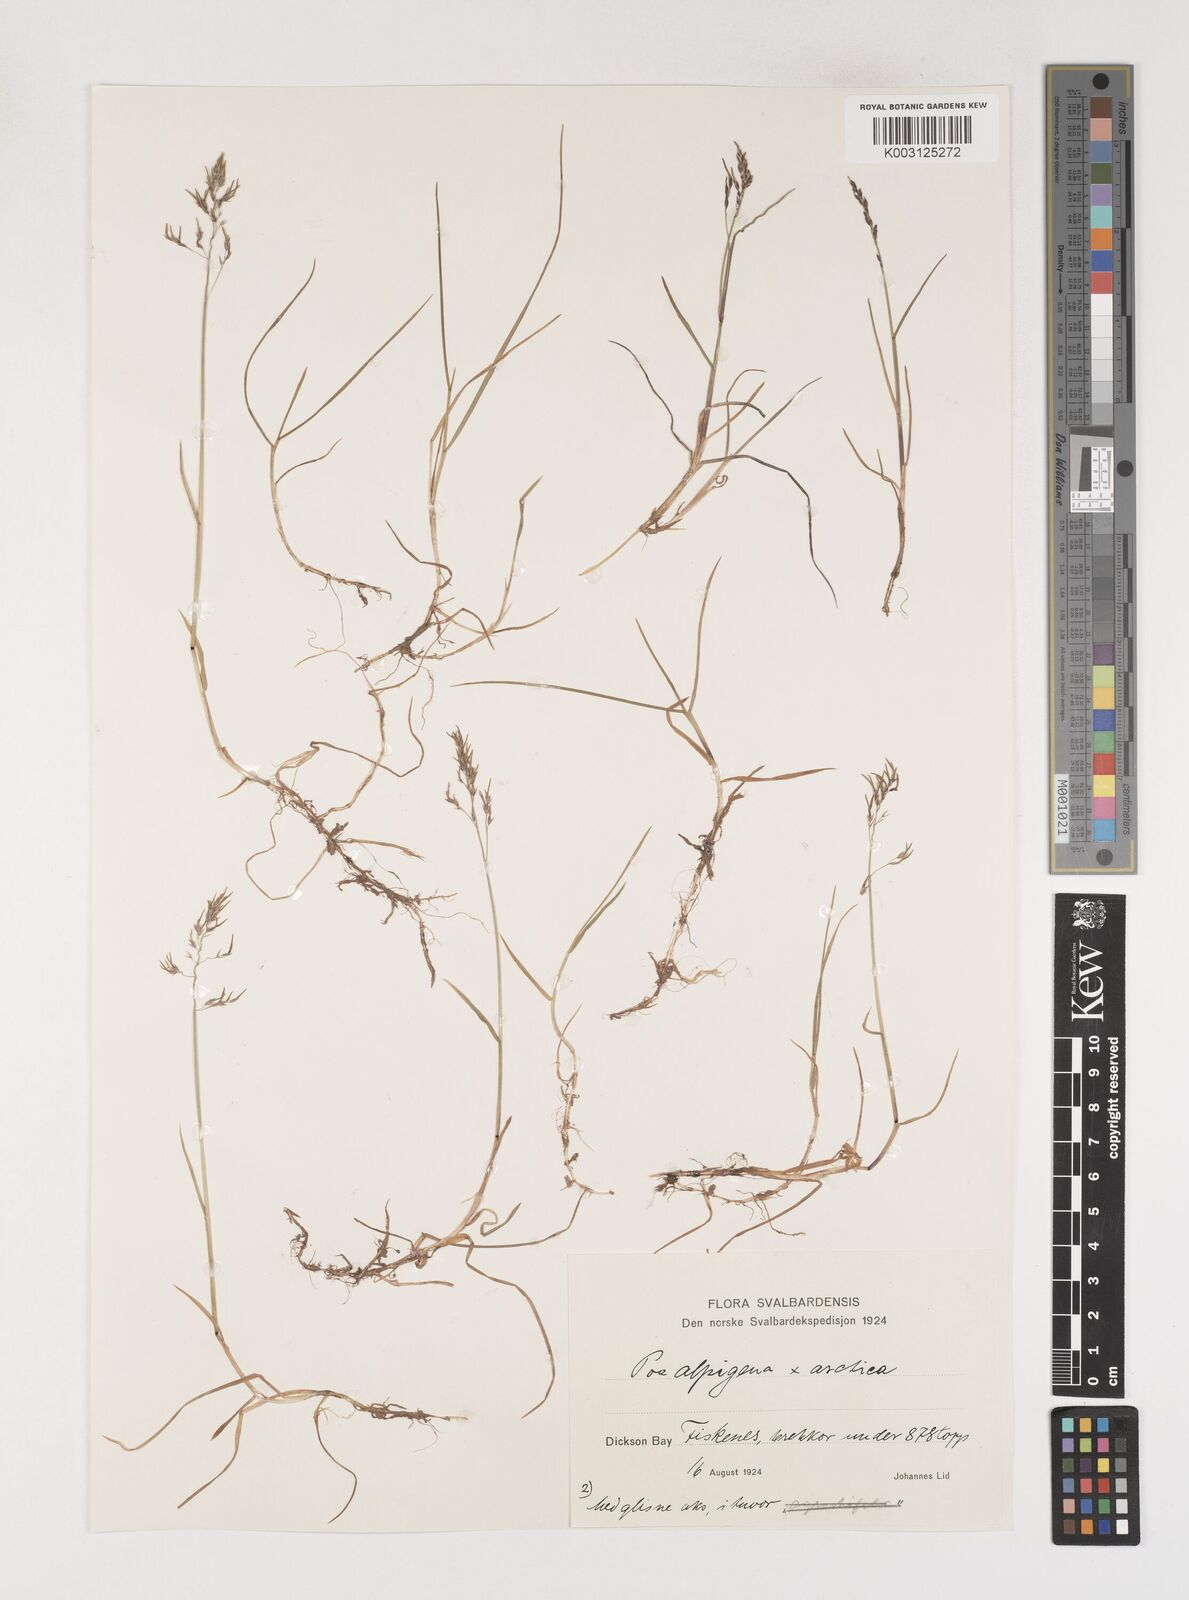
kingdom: Plantae
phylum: Tracheophyta
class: Liliopsida
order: Poales
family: Poaceae
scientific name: Poaceae
